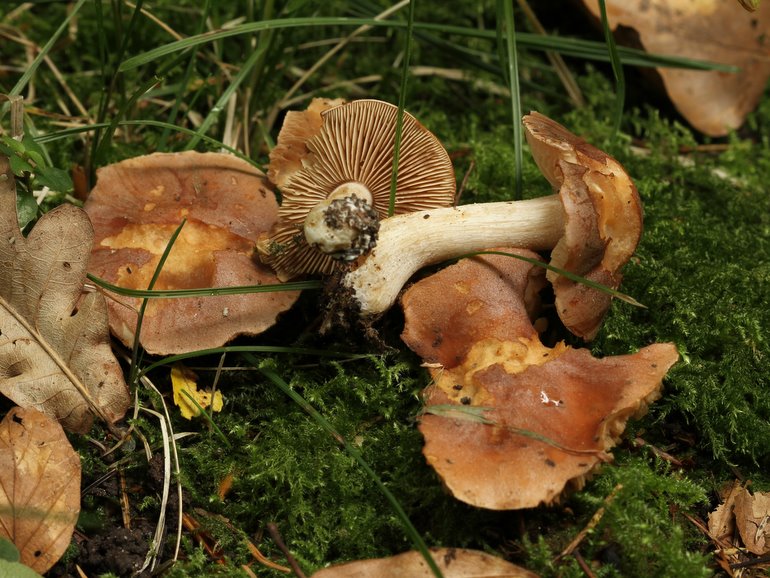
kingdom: Fungi
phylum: Basidiomycota
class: Agaricomycetes
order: Agaricales
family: Hymenogastraceae
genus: Hebeloma
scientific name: Hebeloma theobrominum
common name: rødbrun tåreblad
